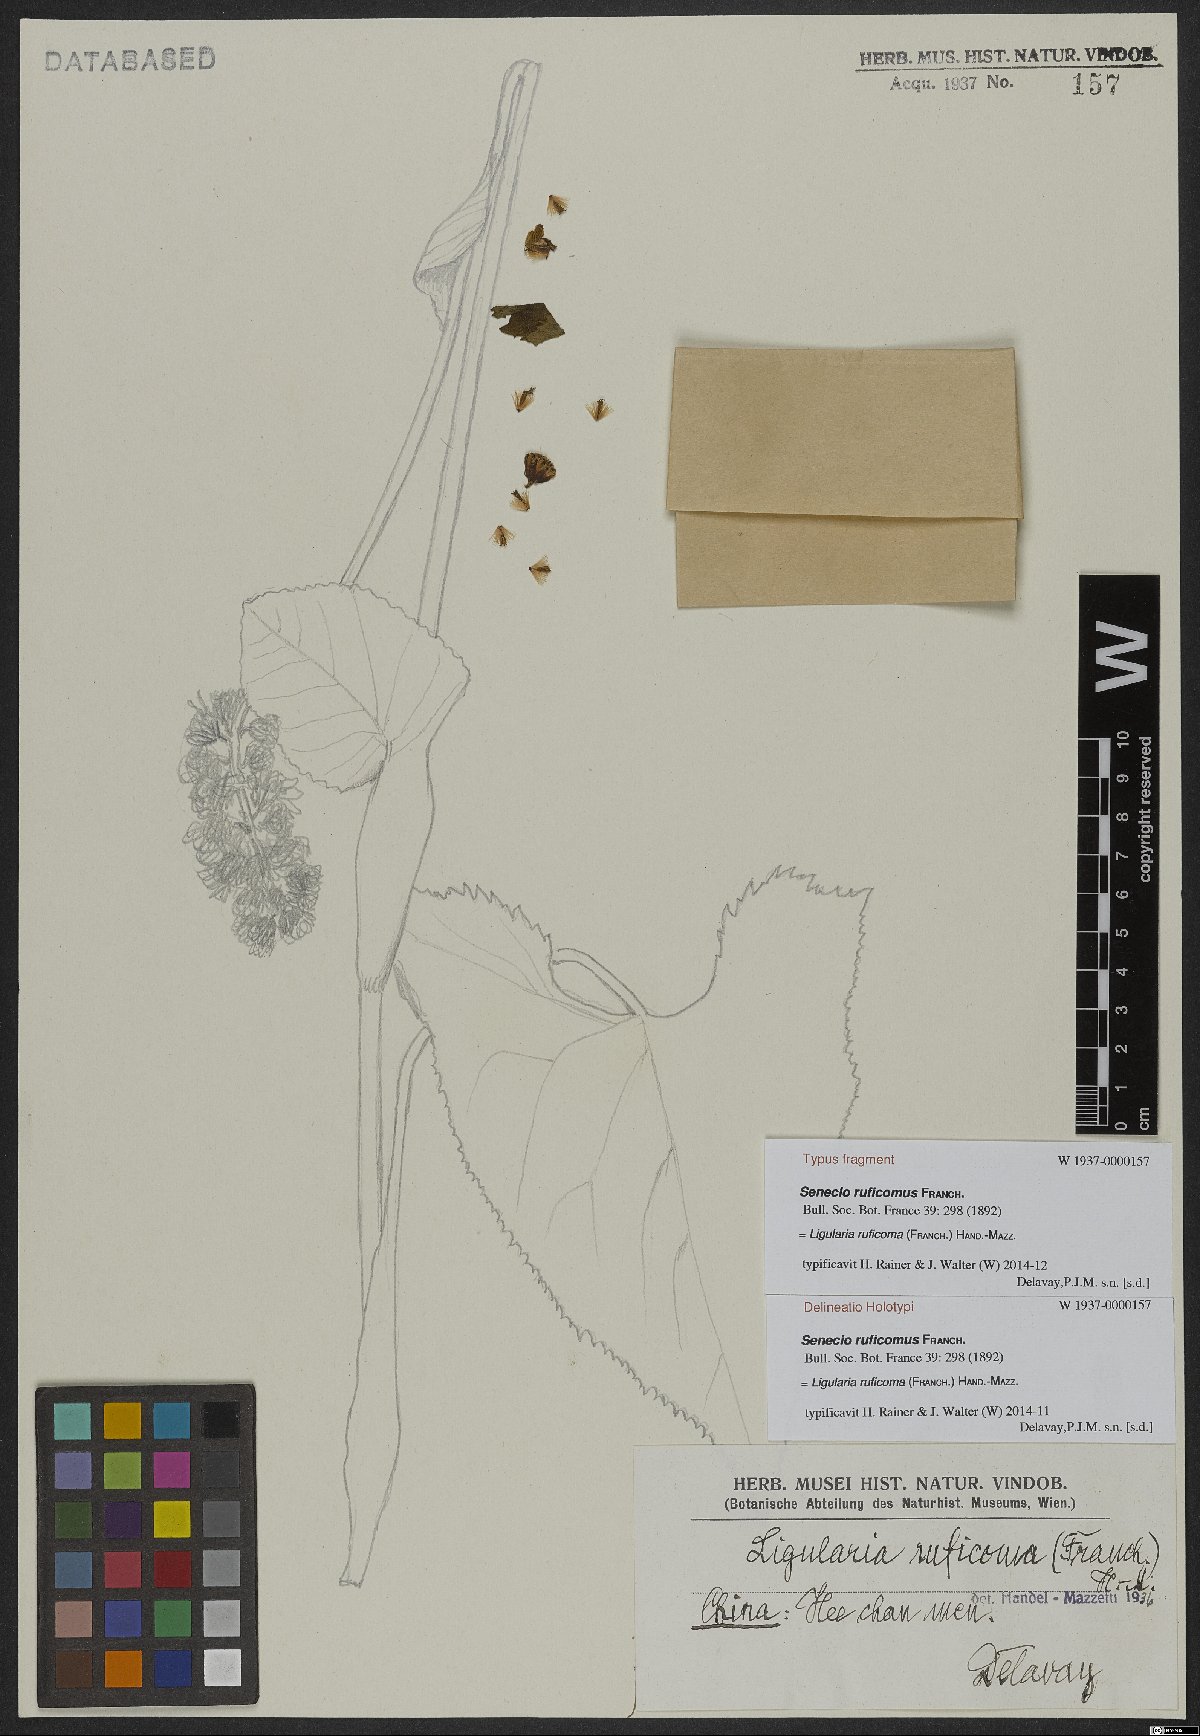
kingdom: Plantae
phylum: Tracheophyta
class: Magnoliopsida
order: Asterales
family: Asteraceae
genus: Ligularia
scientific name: Ligularia ruficoma
